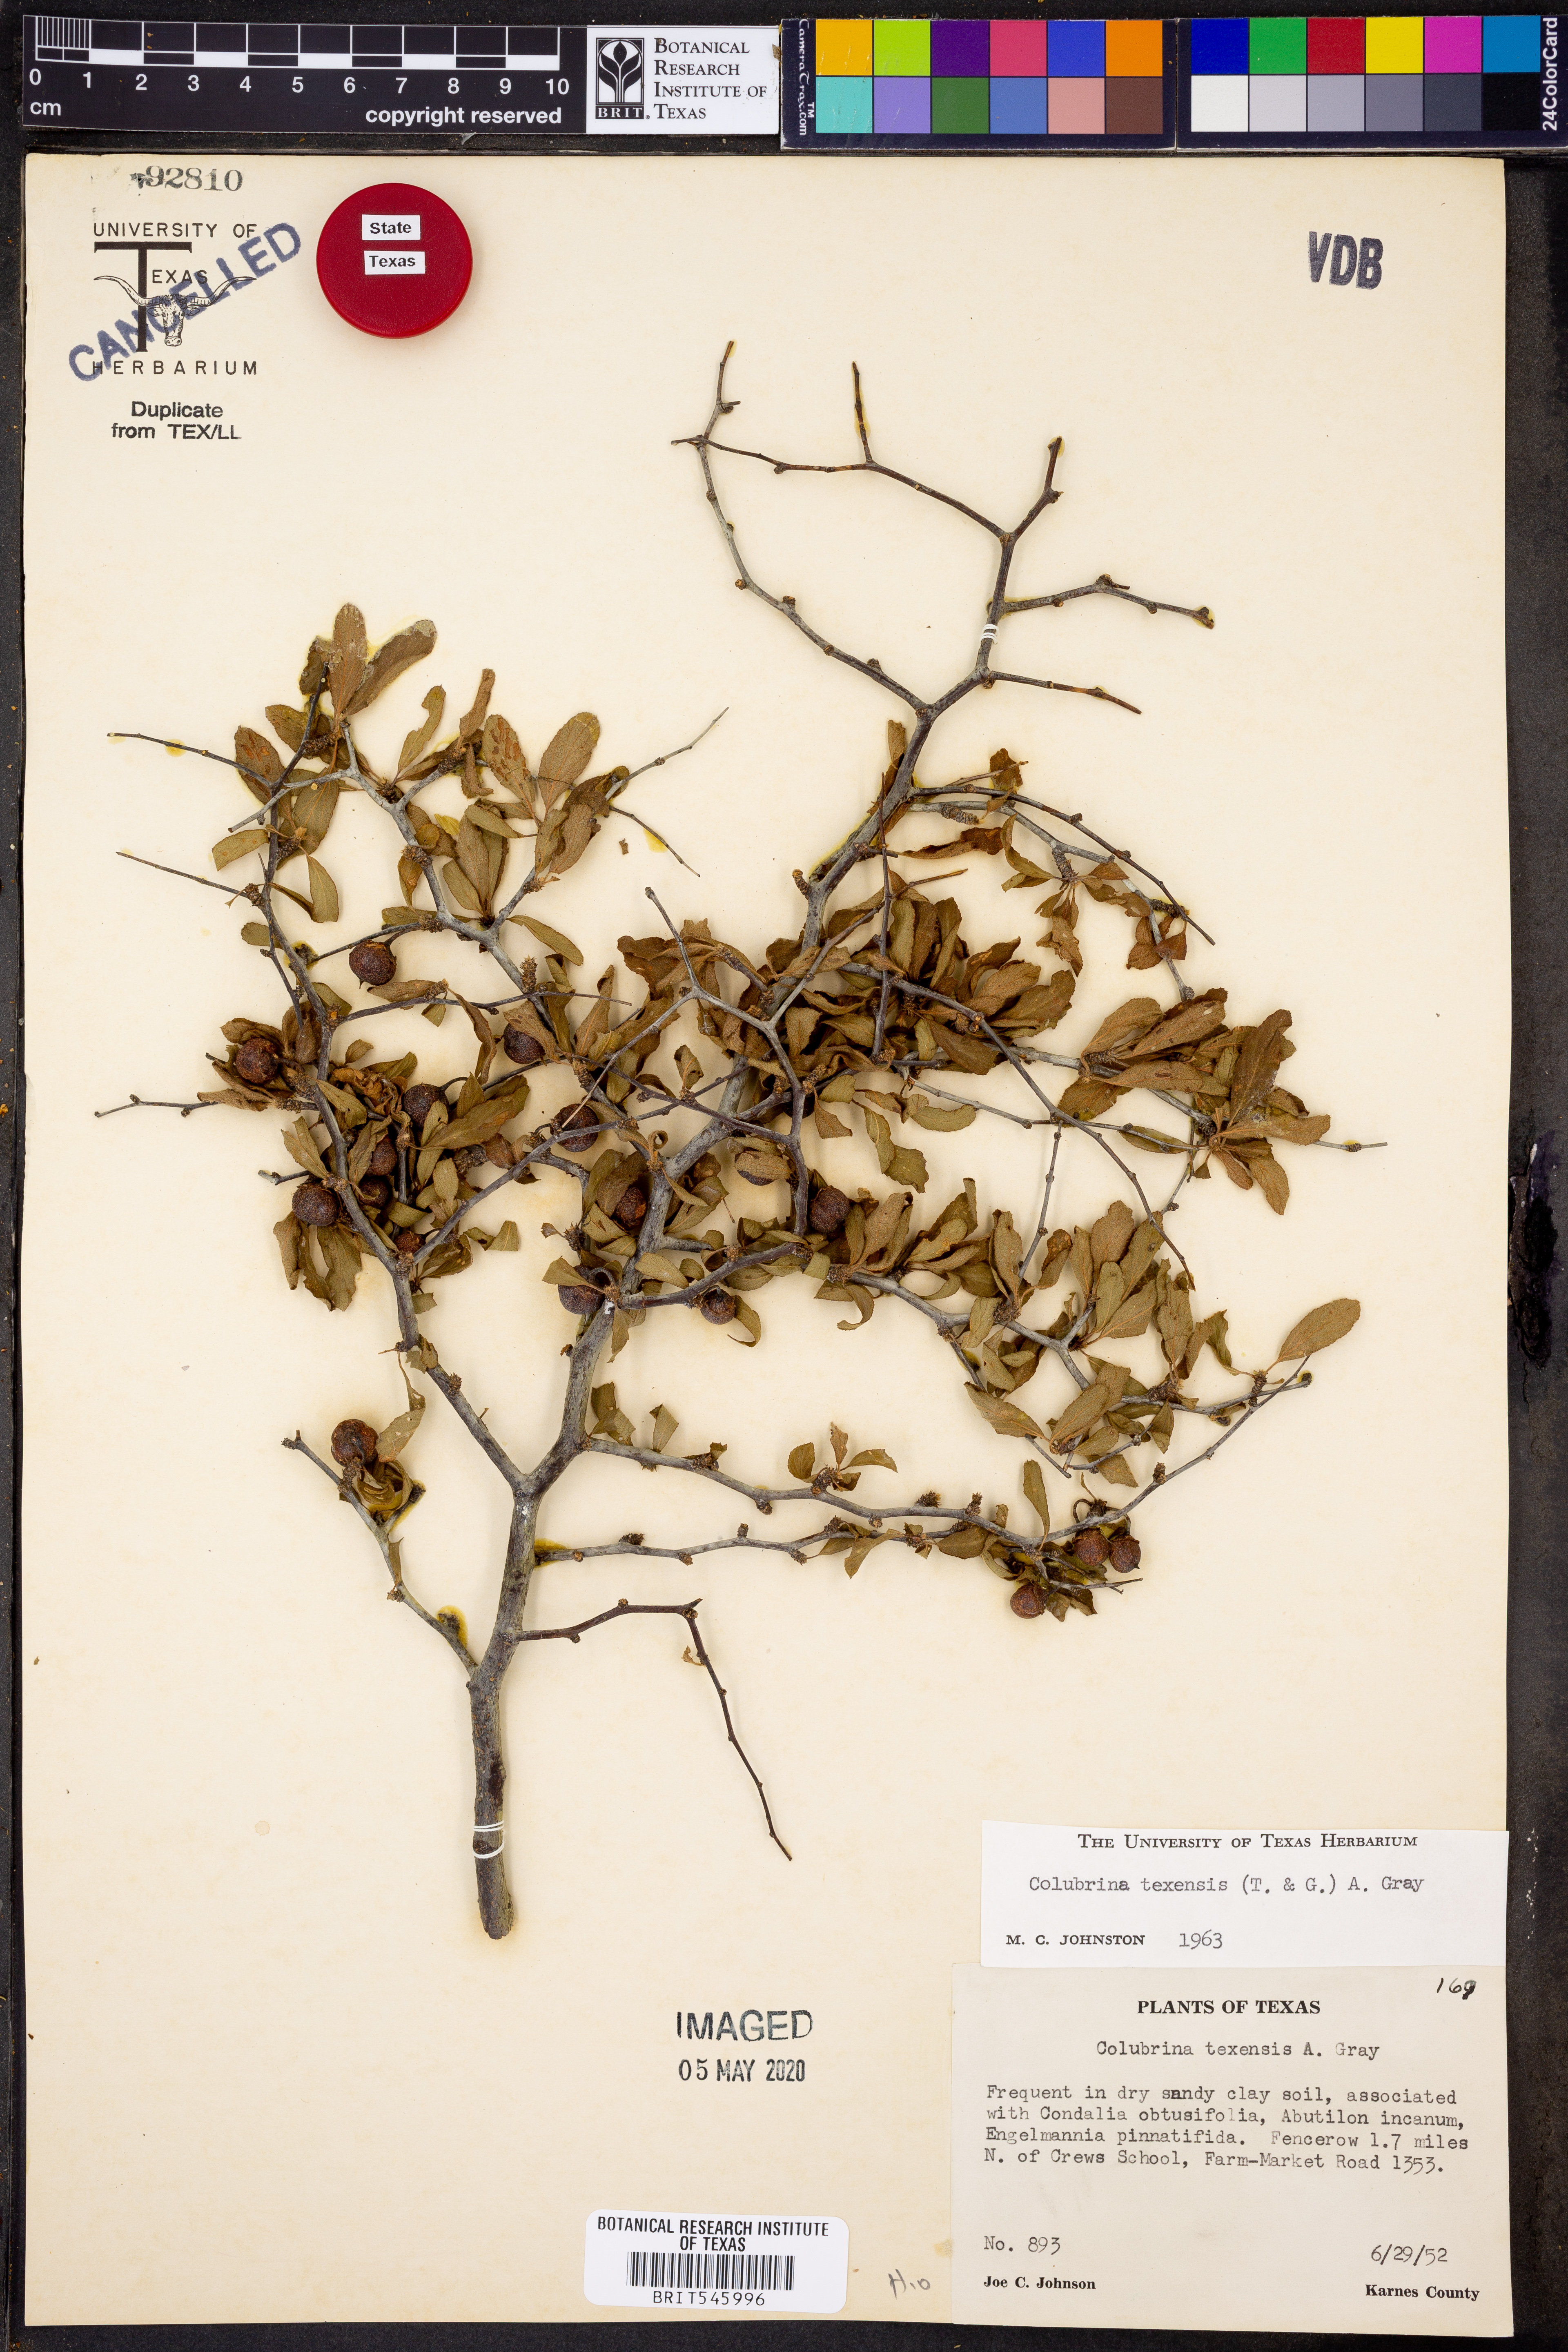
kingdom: Plantae
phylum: Tracheophyta
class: Magnoliopsida
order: Rosales
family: Rhamnaceae
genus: Colubrina
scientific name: Colubrina texensis
